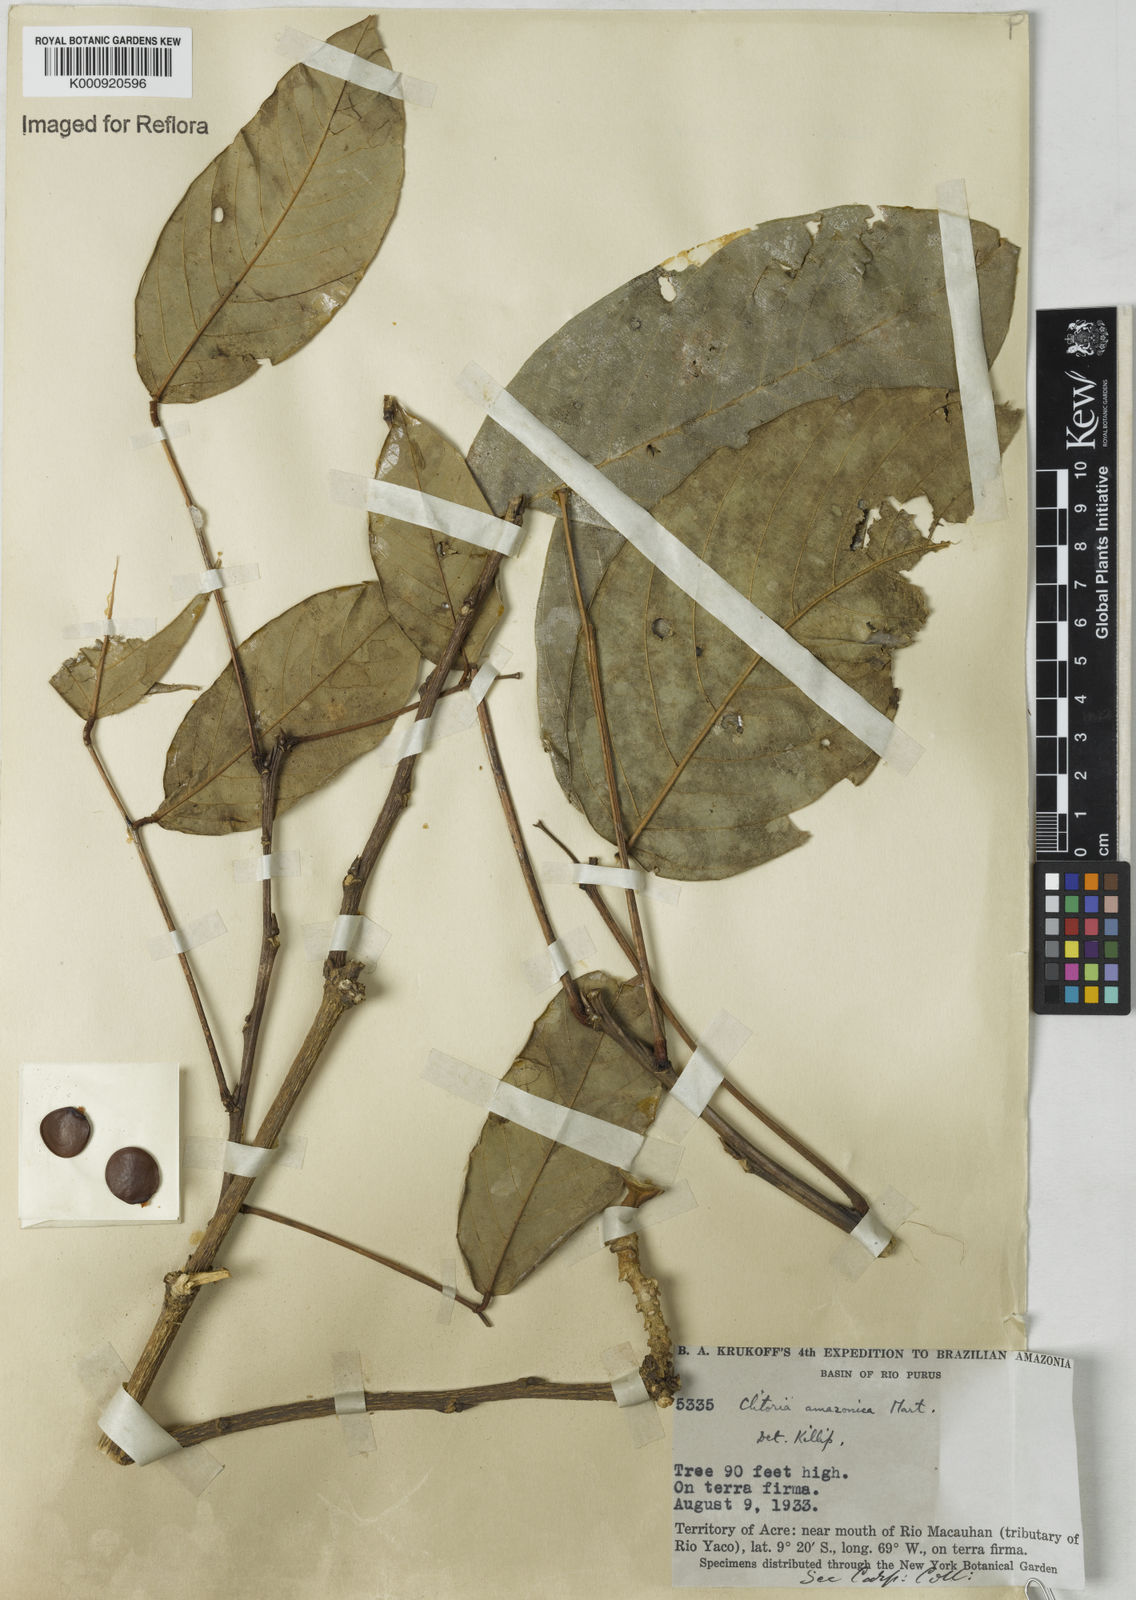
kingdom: Plantae
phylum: Tracheophyta
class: Magnoliopsida
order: Fabales
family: Fabaceae
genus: Clitoria
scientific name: Clitoria amazonum
